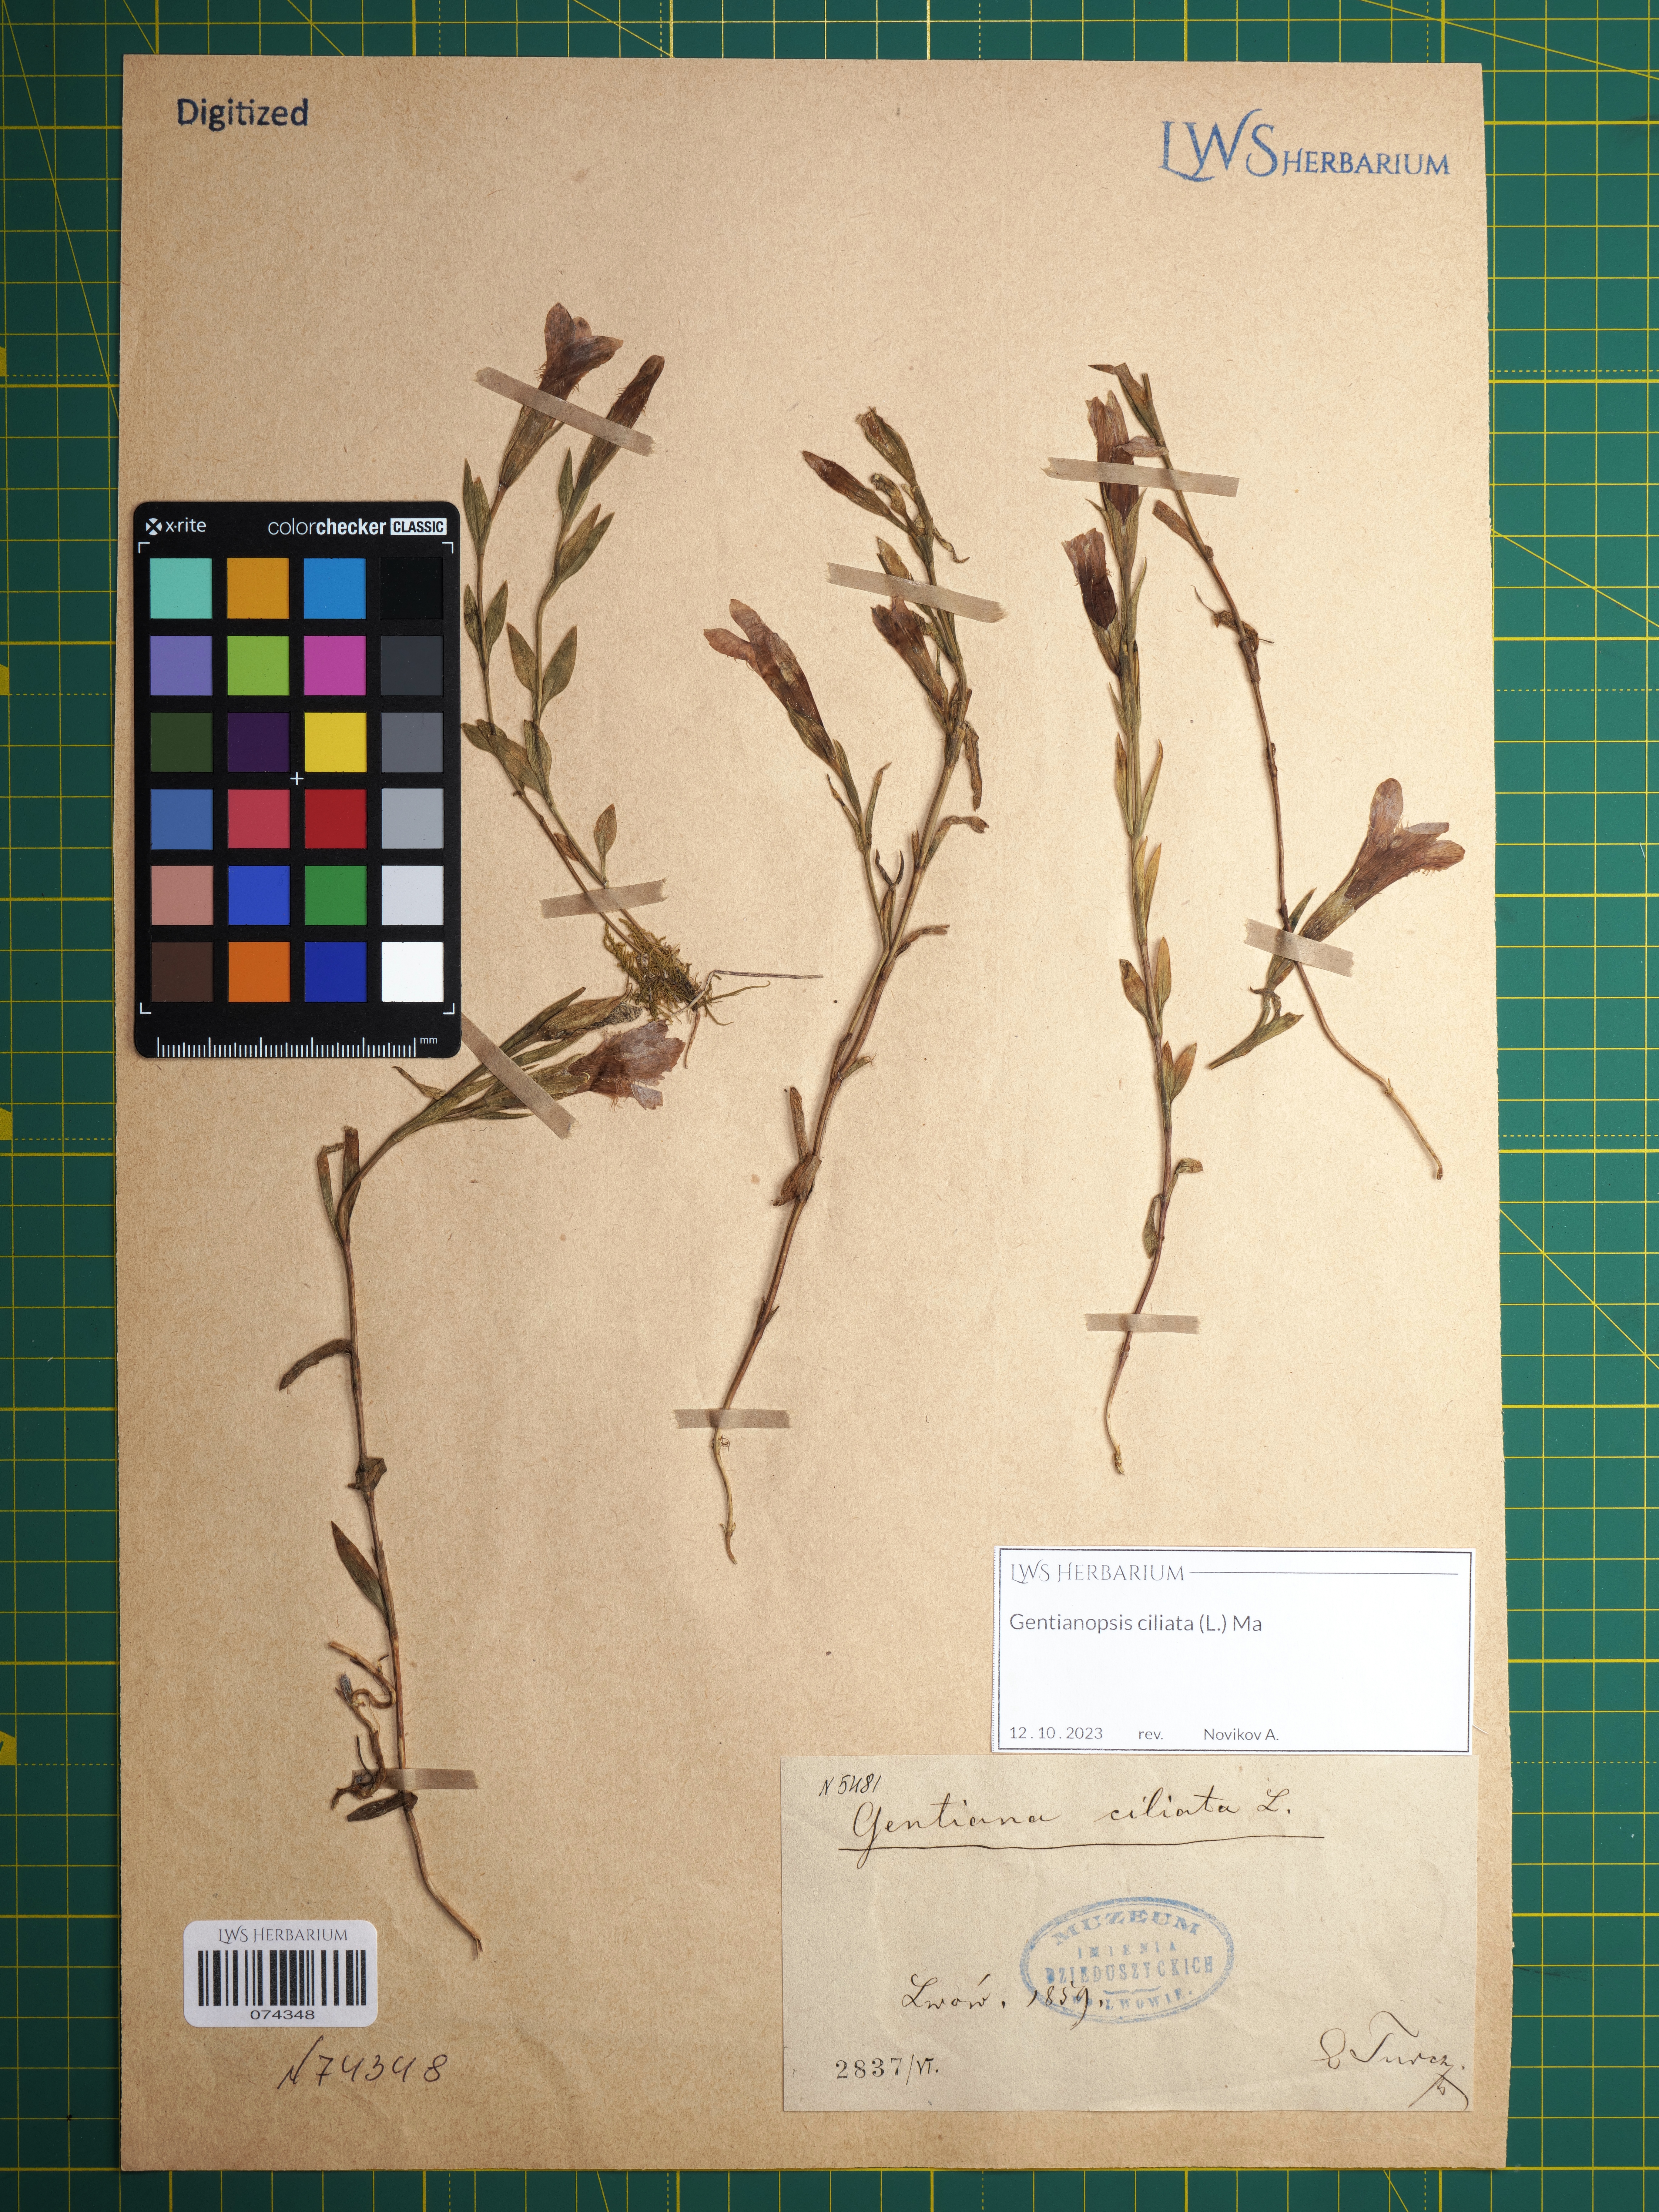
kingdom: Plantae
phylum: Tracheophyta
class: Magnoliopsida
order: Gentianales
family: Gentianaceae
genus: Gentianopsis
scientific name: Gentianopsis ciliata
